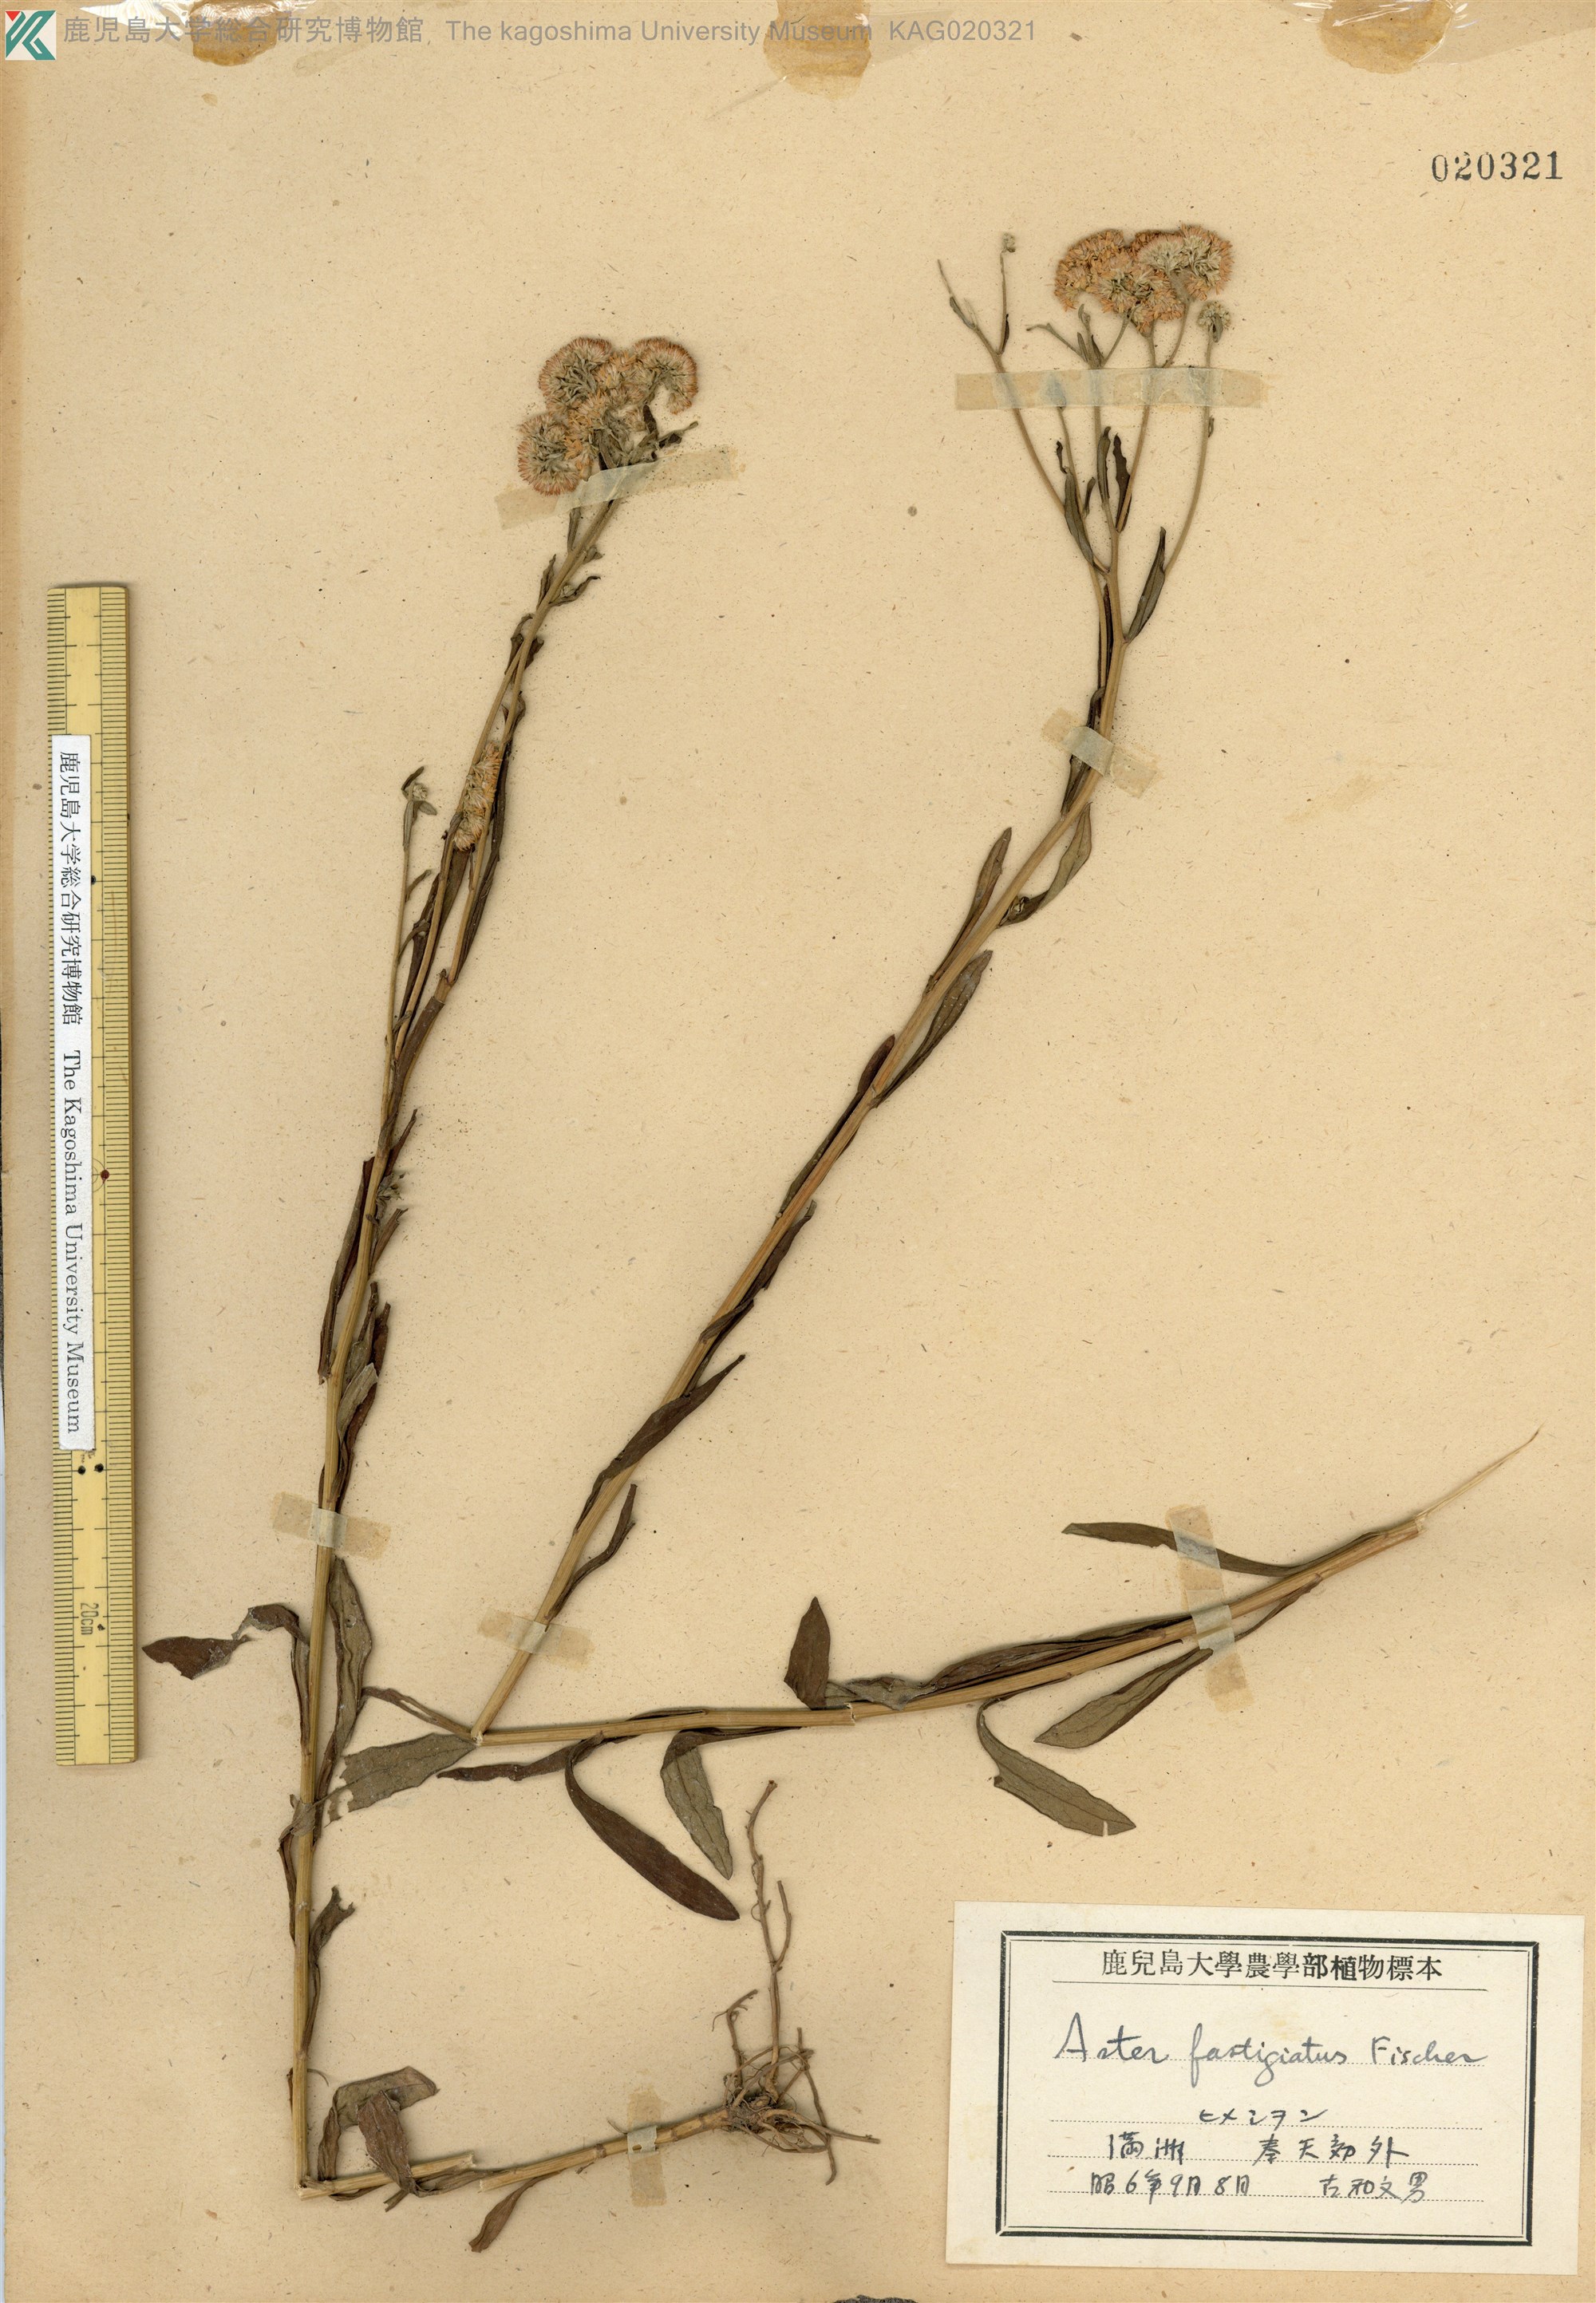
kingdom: Plantae
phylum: Tracheophyta
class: Magnoliopsida
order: Asterales
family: Asteraceae
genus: Turczaninovia
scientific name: Turczaninovia fastigiata
